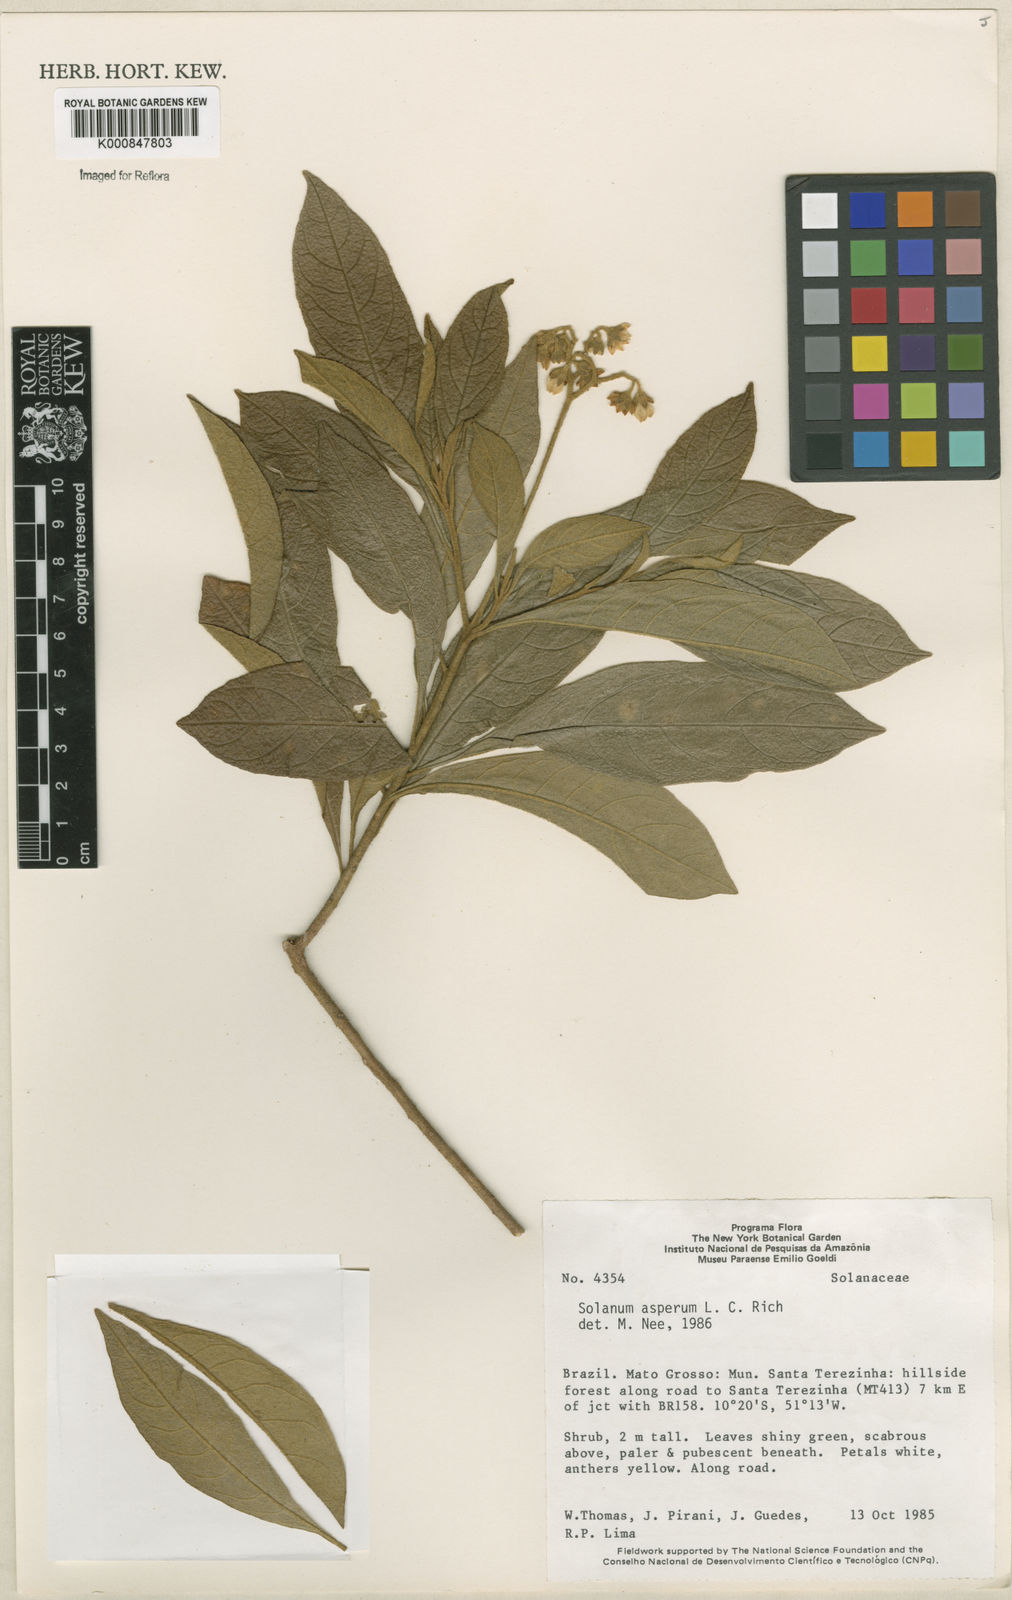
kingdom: Plantae
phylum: Tracheophyta
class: Magnoliopsida
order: Solanales
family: Solanaceae
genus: Solanum
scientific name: Solanum asperum
